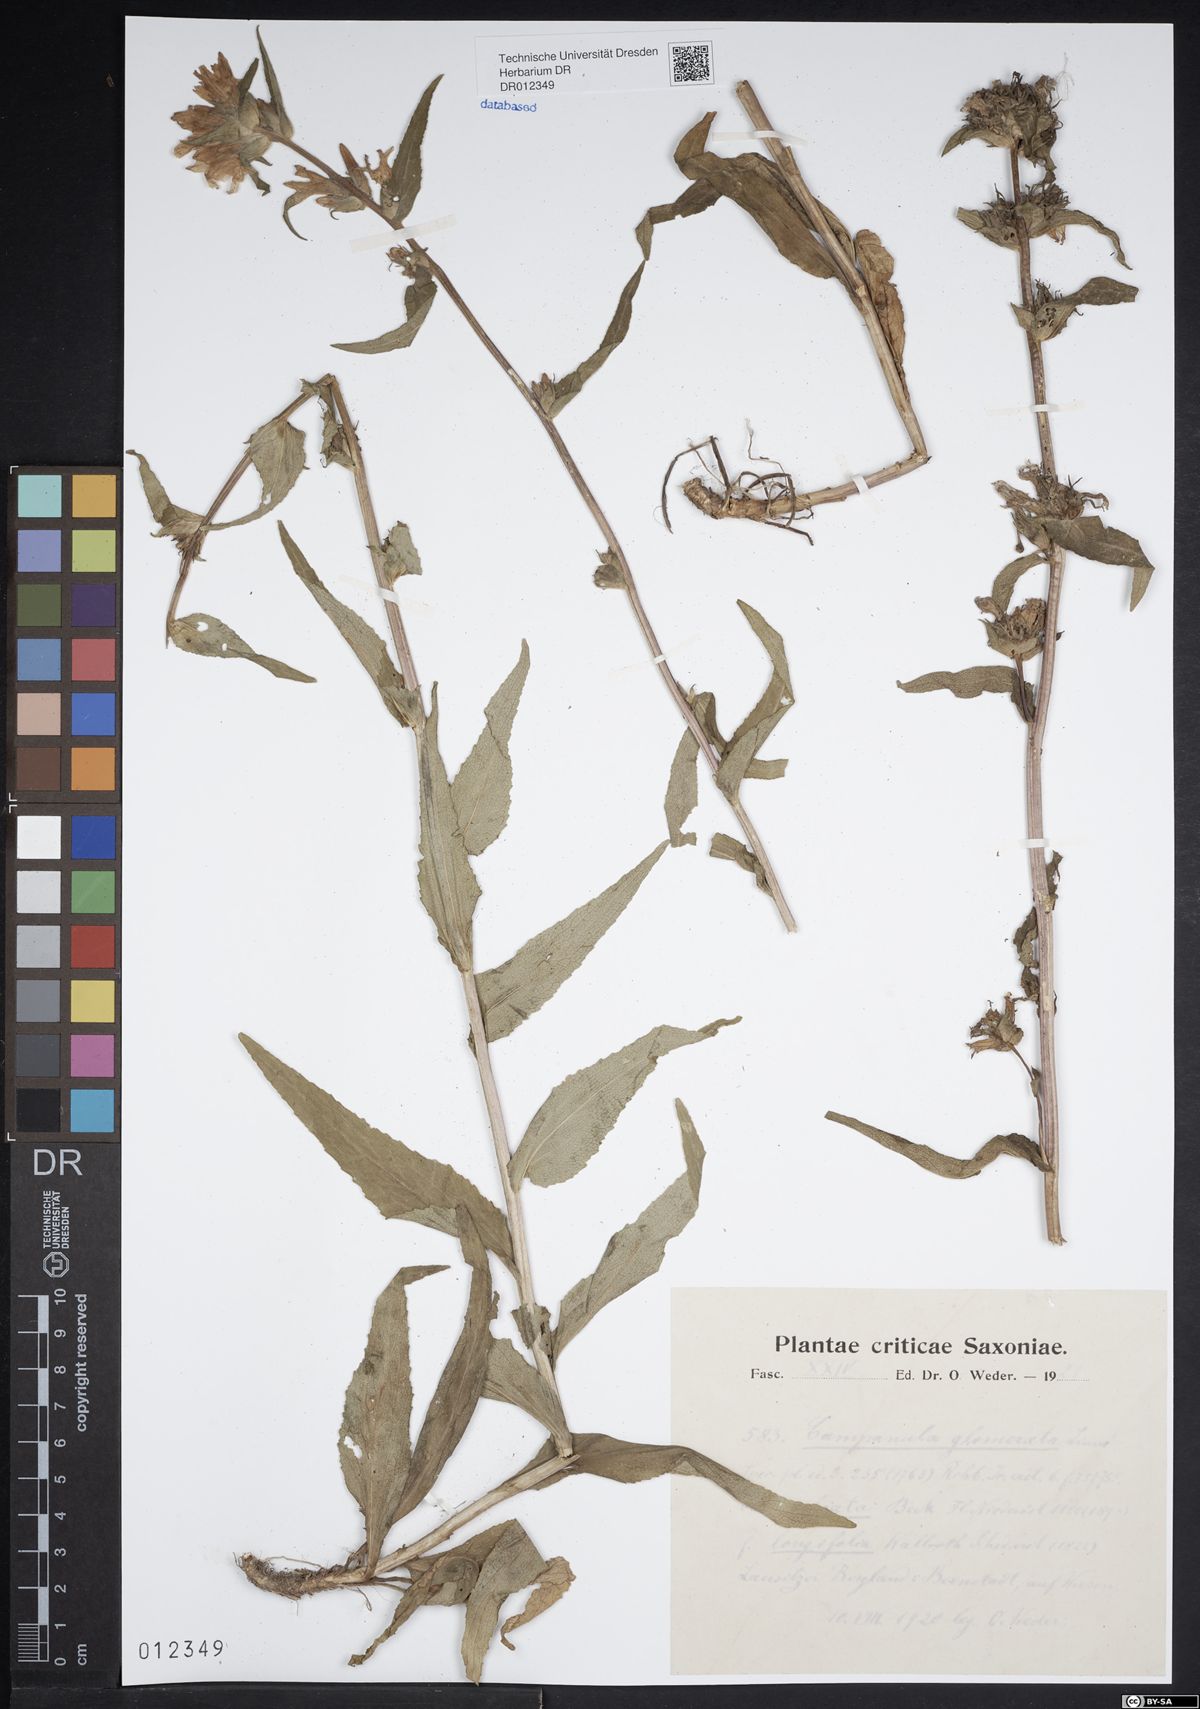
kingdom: Plantae
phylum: Tracheophyta
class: Magnoliopsida
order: Asterales
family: Campanulaceae
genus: Campanula
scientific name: Campanula glomerata
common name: Clustered bellflower
